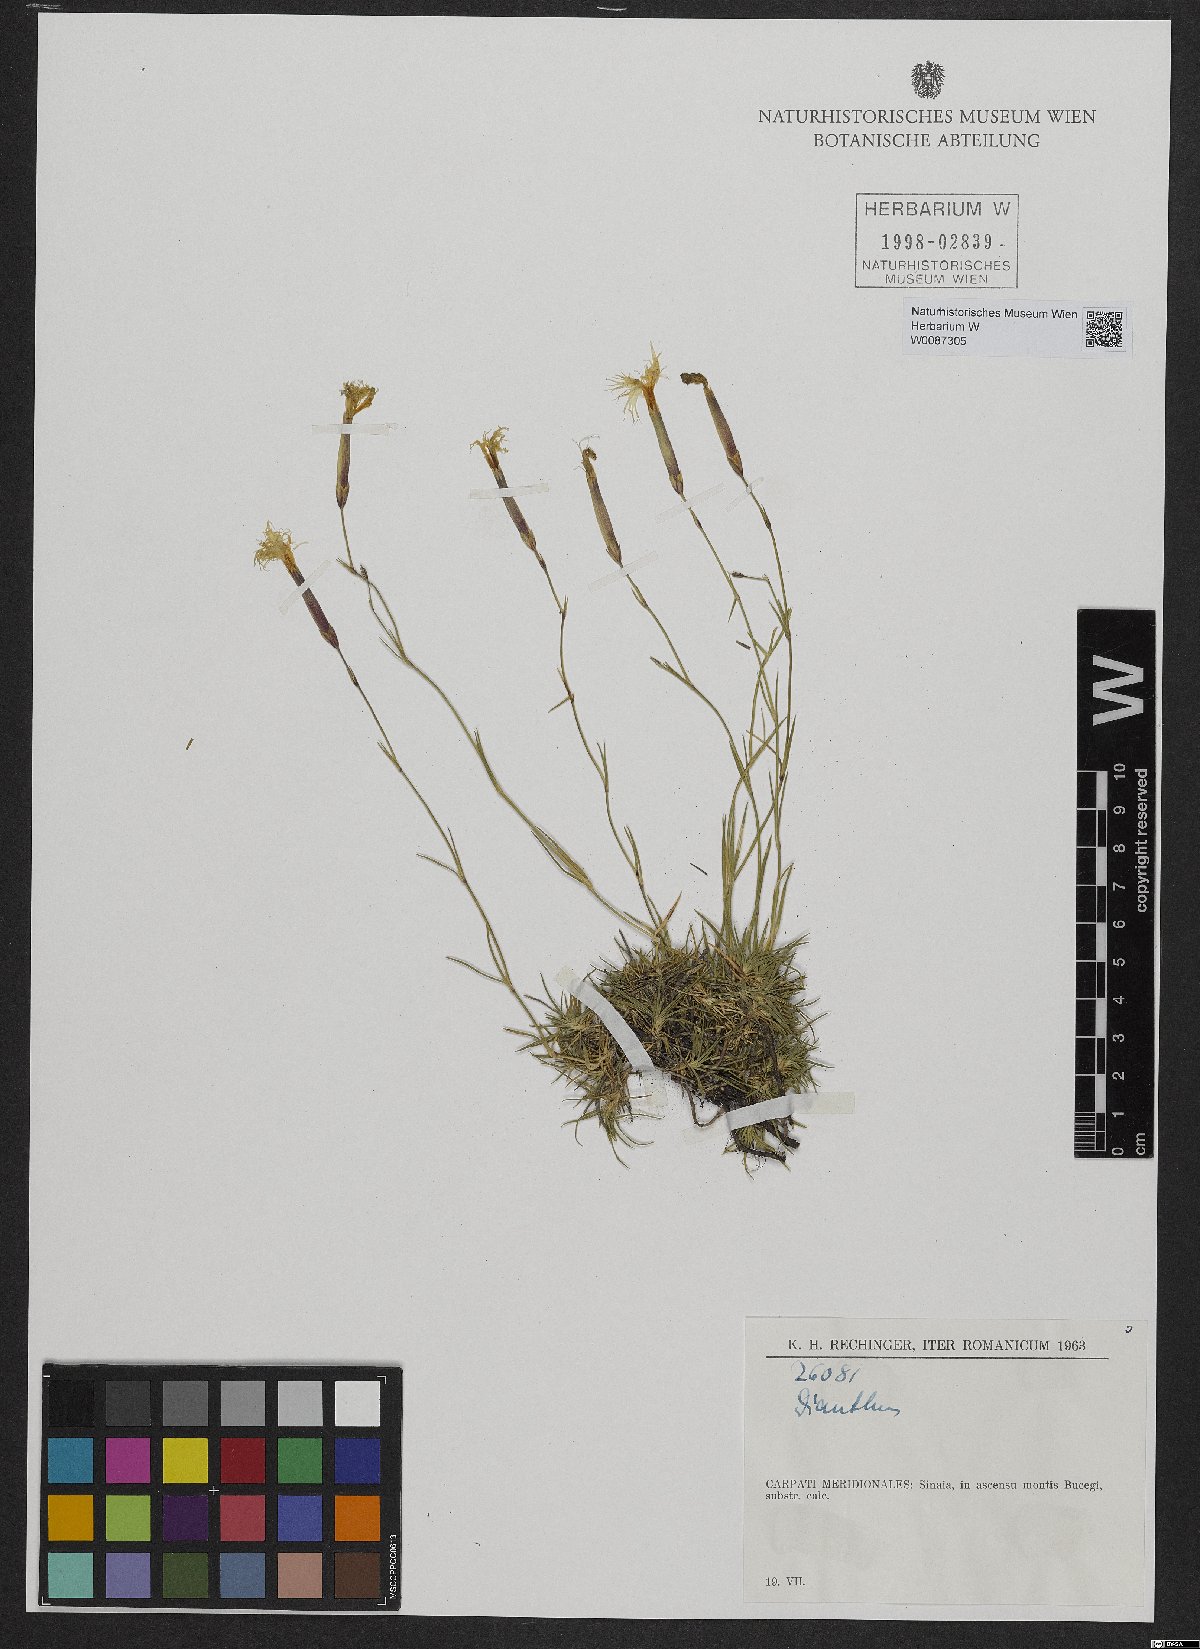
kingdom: Plantae
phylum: Tracheophyta
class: Magnoliopsida
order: Caryophyllales
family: Caryophyllaceae
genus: Dianthus
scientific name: Dianthus
